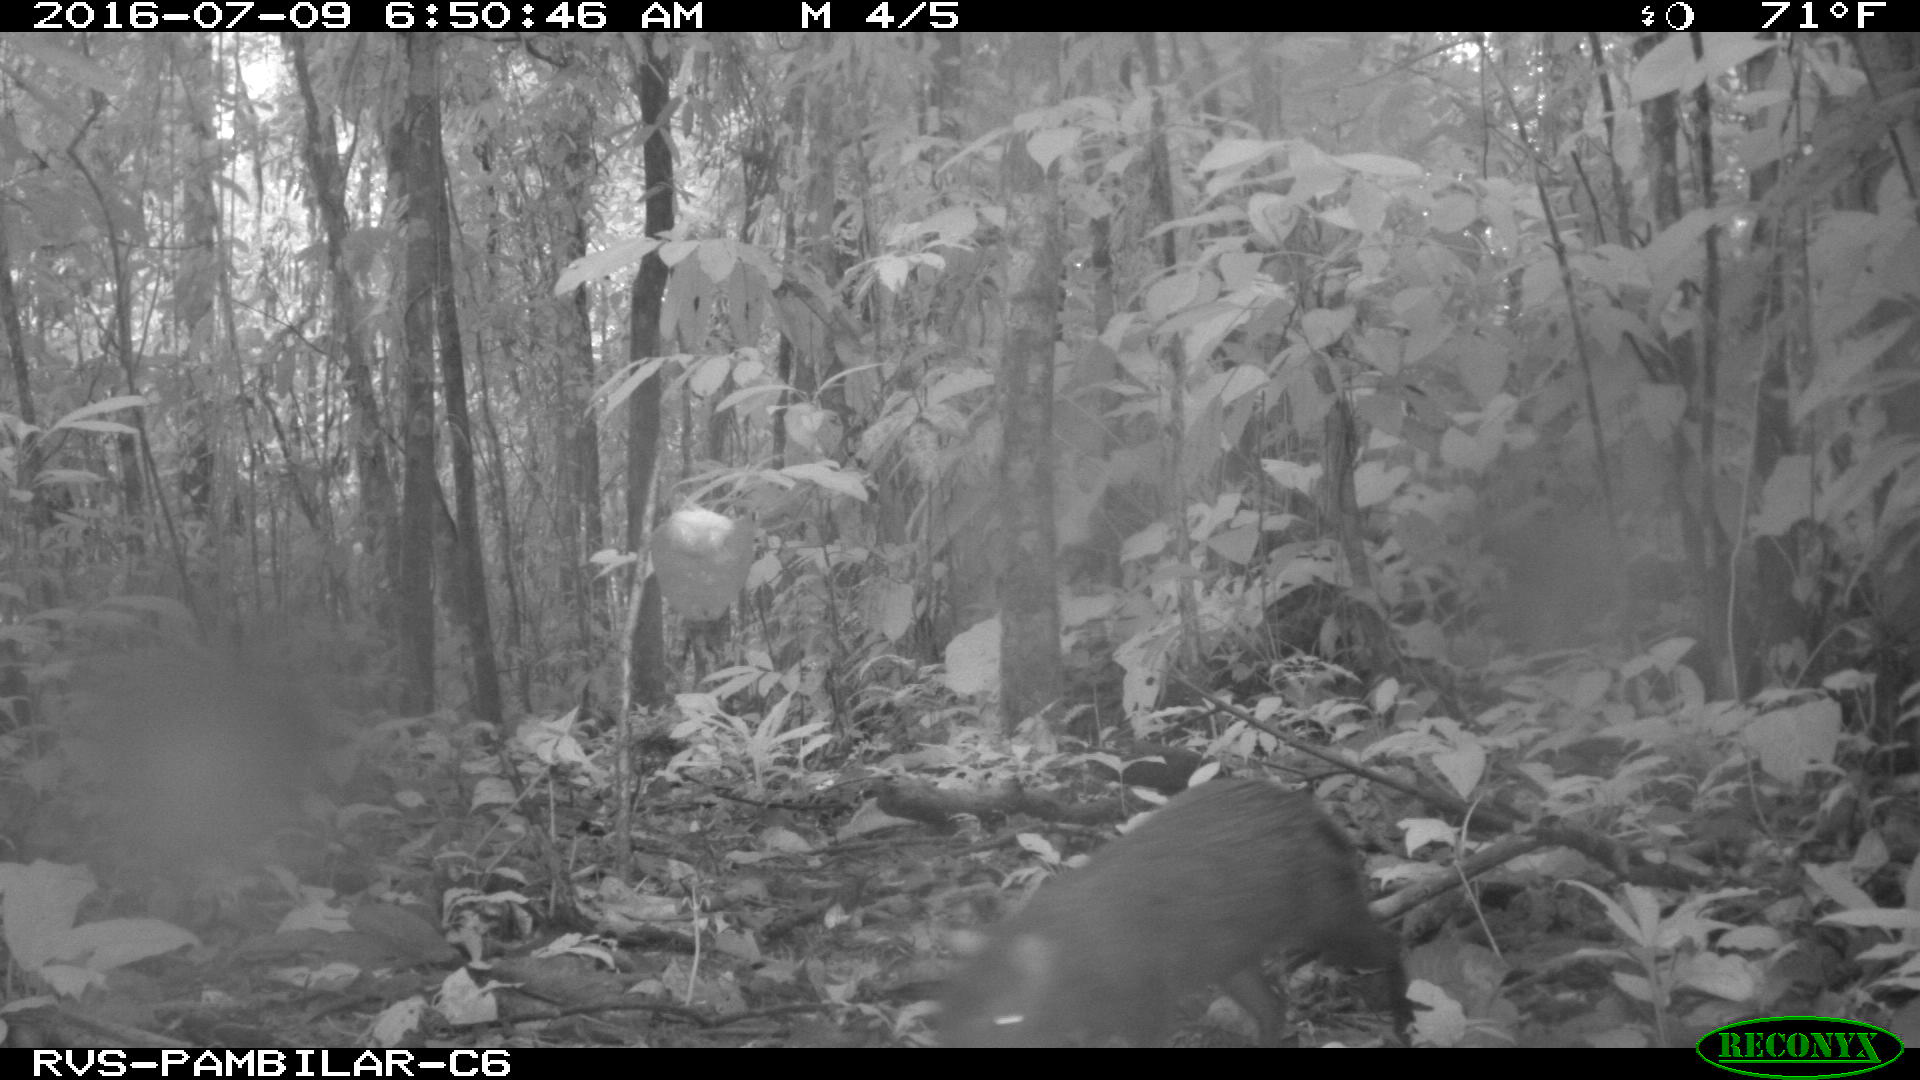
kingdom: Animalia
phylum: Chordata
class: Mammalia
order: Rodentia
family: Dasyproctidae
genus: Dasyprocta
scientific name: Dasyprocta punctata
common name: Central american agouti
